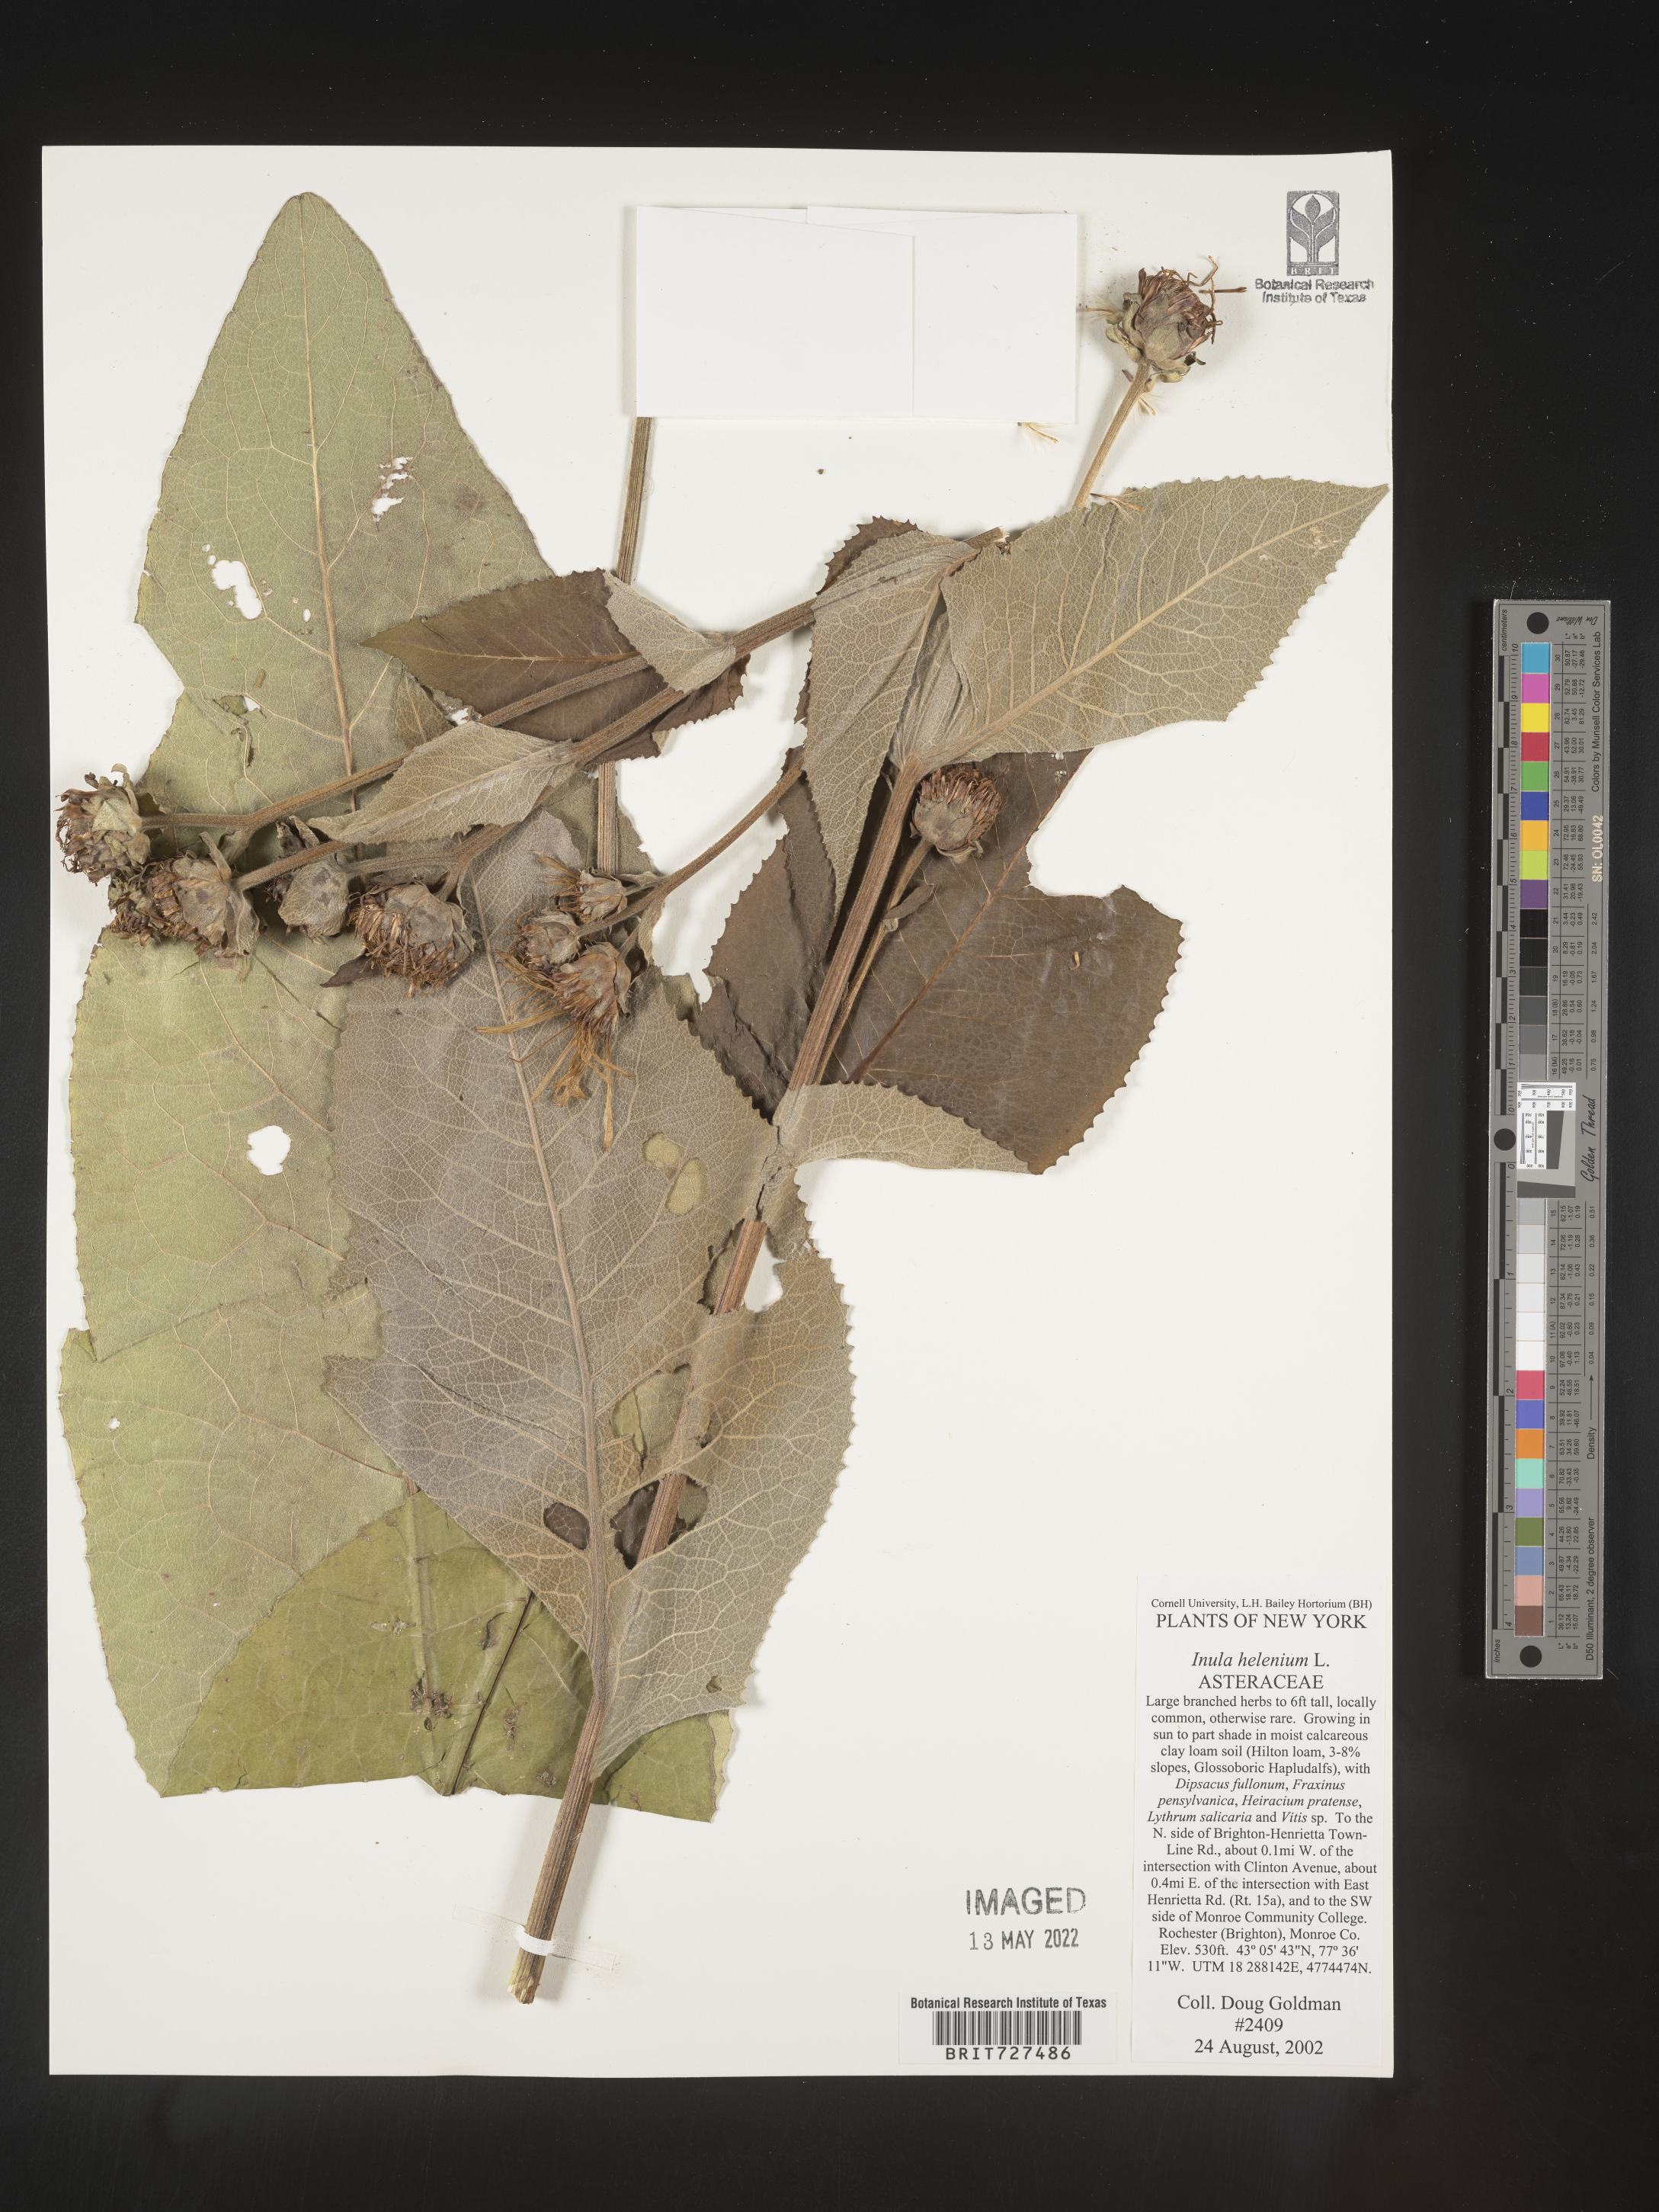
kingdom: Plantae
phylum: Tracheophyta
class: Magnoliopsida
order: Asterales
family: Asteraceae
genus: Inula
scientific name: Inula helenium
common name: Elecampane
